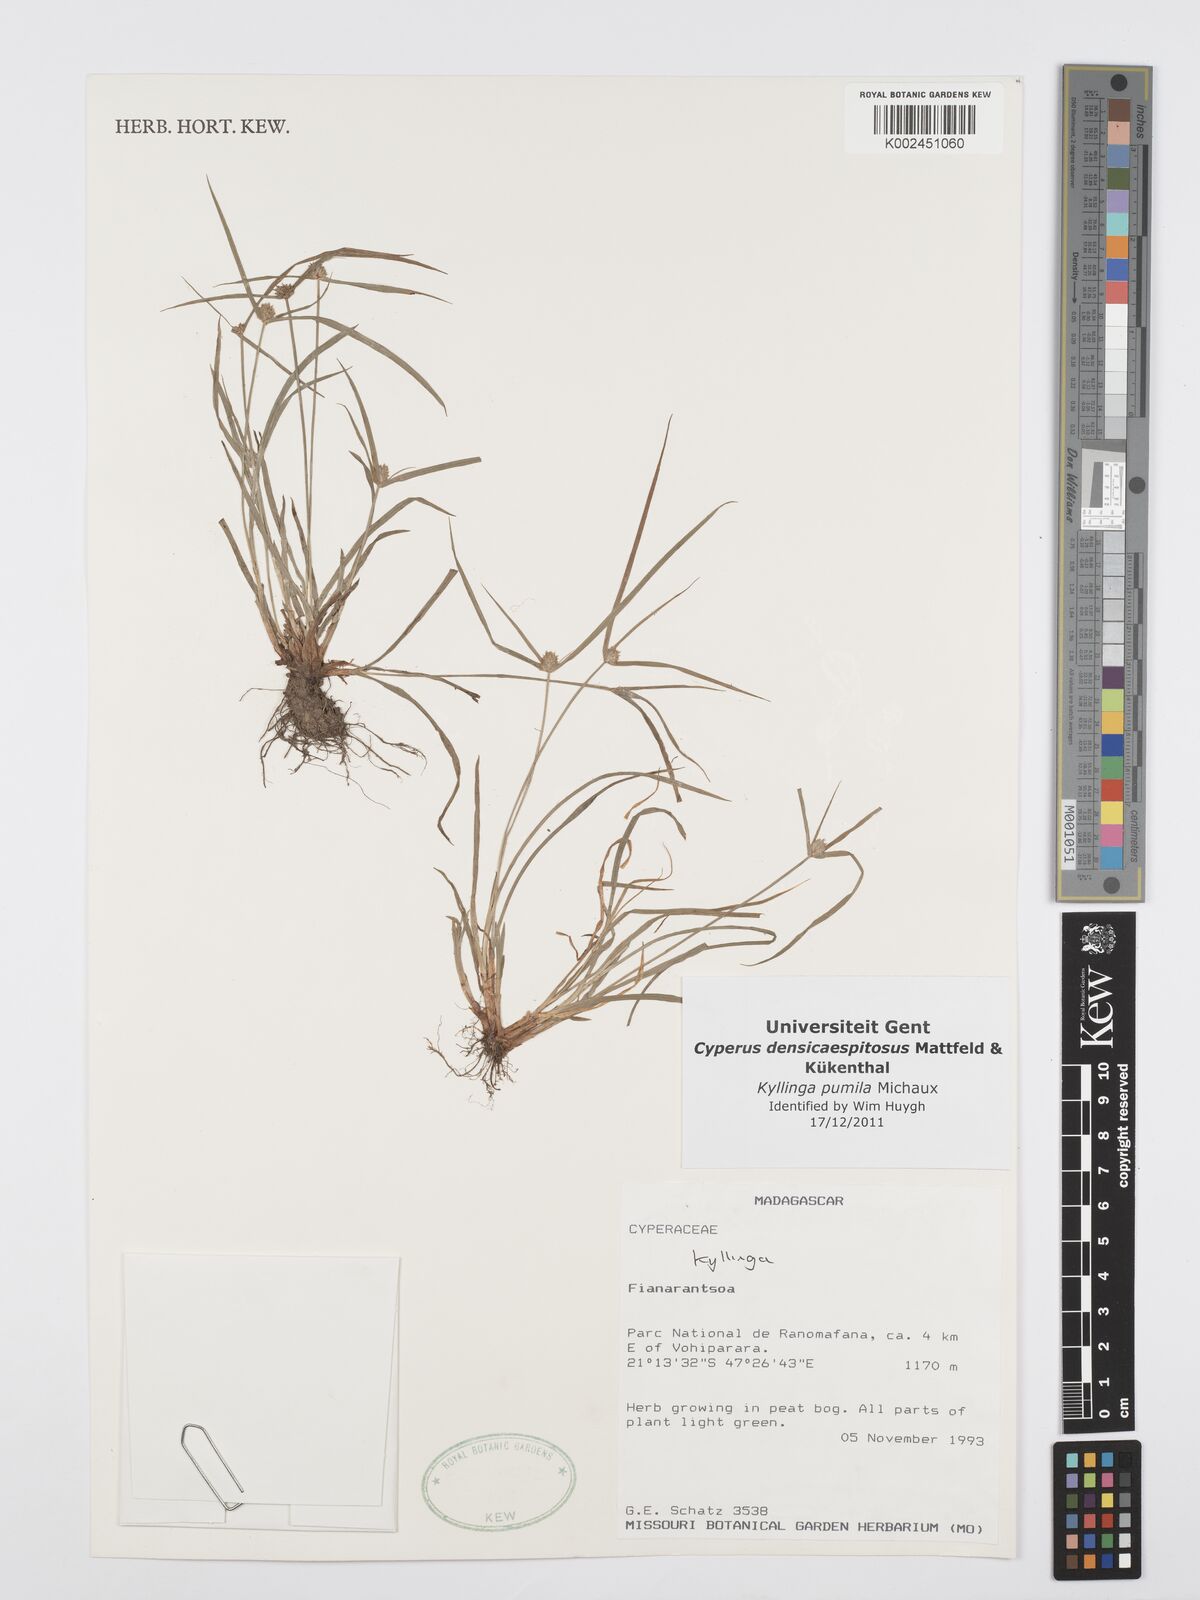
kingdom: Plantae
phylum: Tracheophyta
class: Liliopsida
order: Poales
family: Cyperaceae
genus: Cyperus
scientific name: Cyperus pumilus
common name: Low flatsedge
